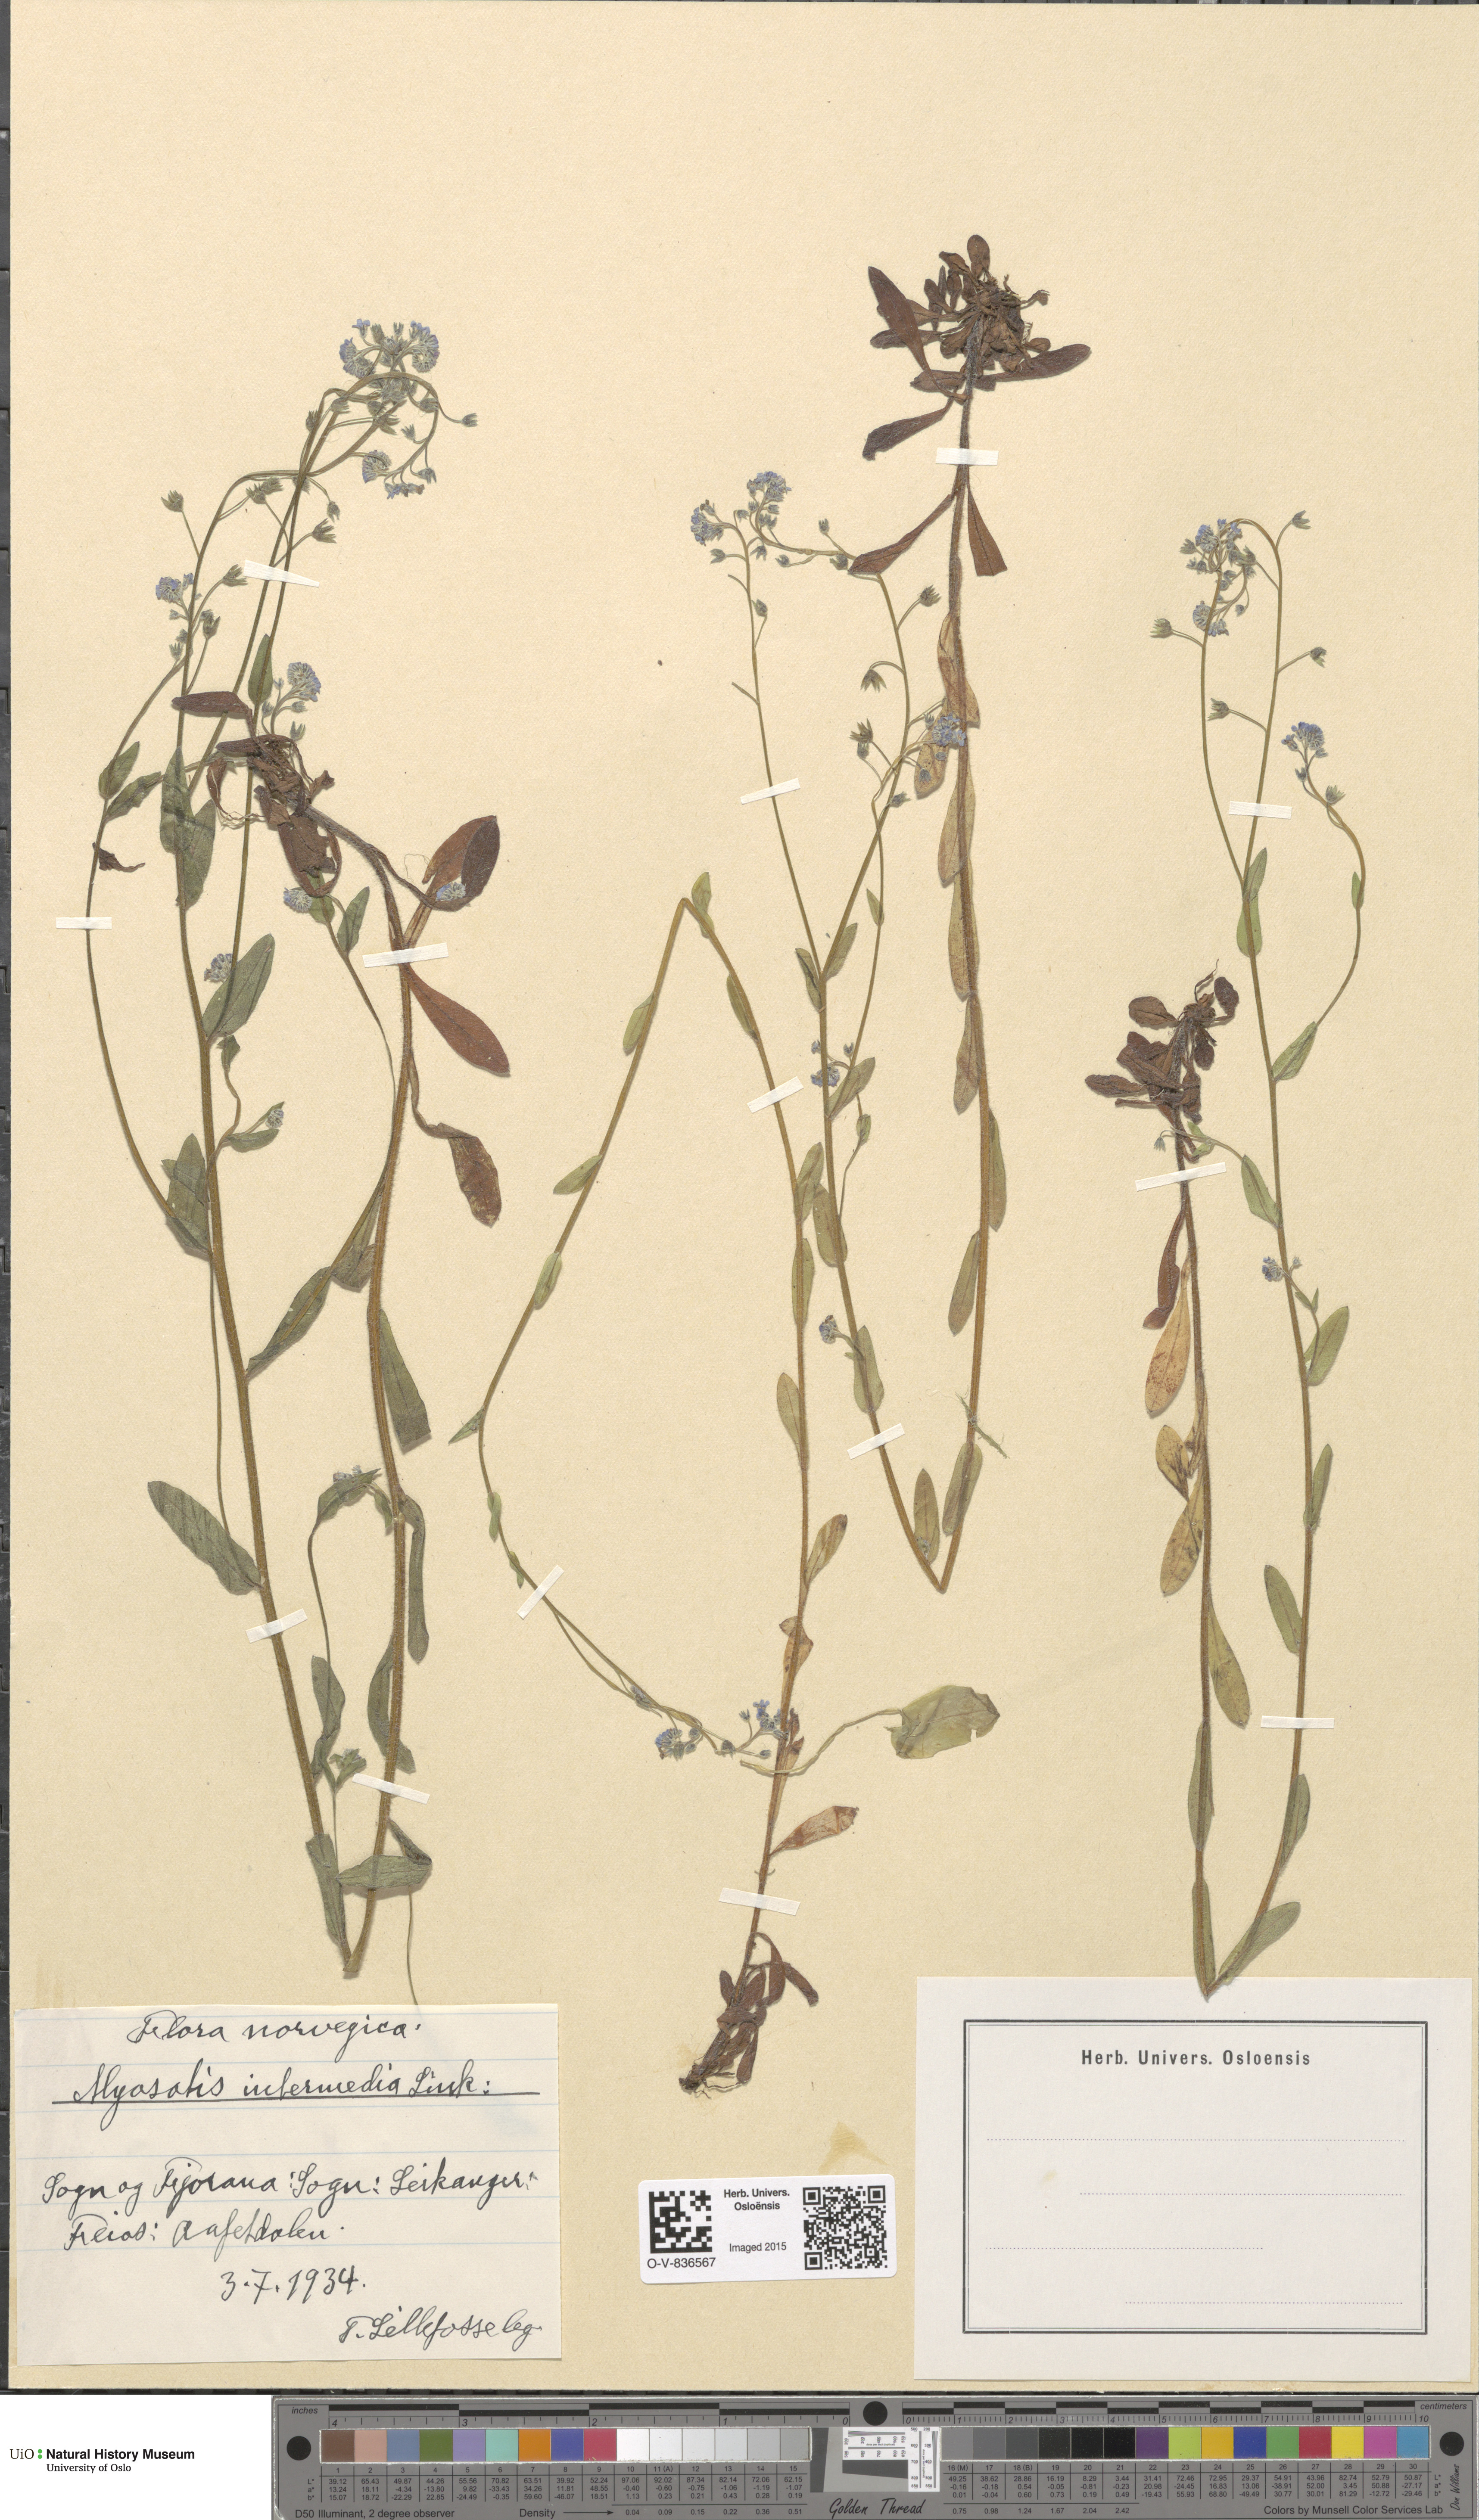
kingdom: Plantae
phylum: Tracheophyta
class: Magnoliopsida
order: Boraginales
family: Boraginaceae
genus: Myosotis
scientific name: Myosotis arvensis
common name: Field forget-me-not
